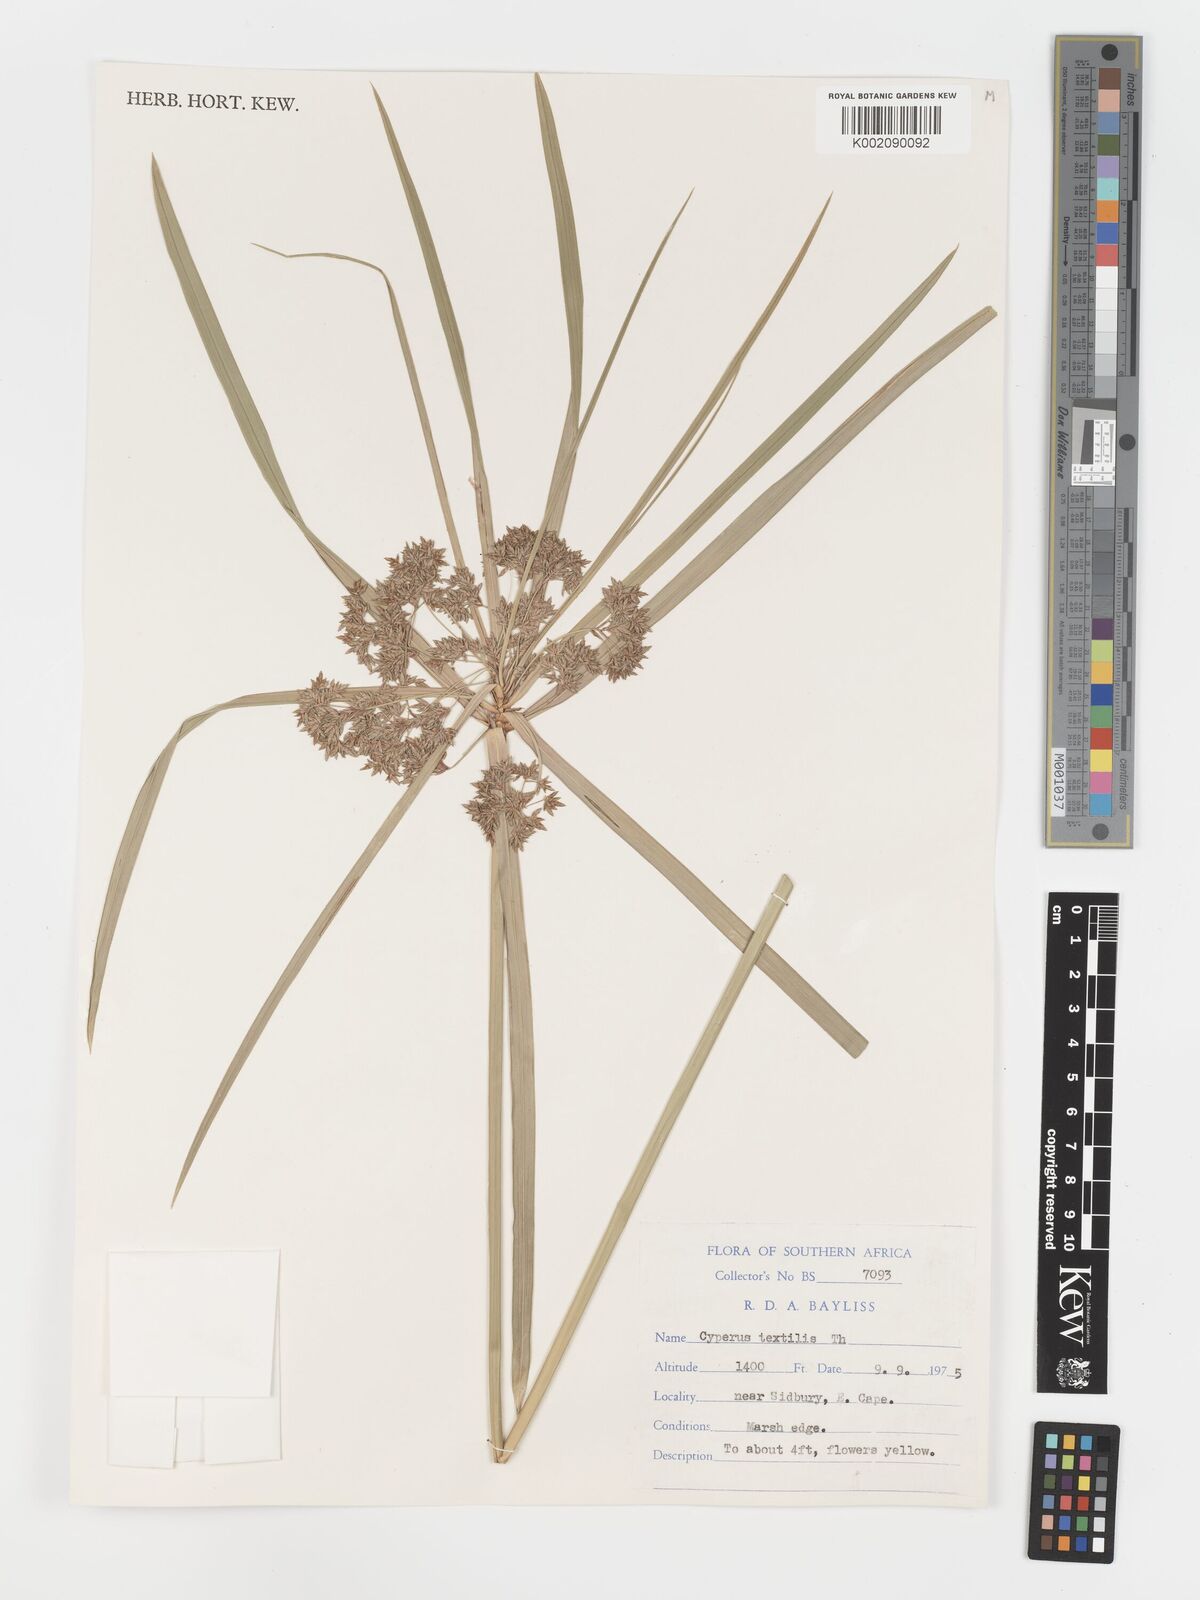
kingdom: Plantae
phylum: Tracheophyta
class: Liliopsida
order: Poales
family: Cyperaceae
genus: Cyperus
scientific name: Cyperus alternifolius
